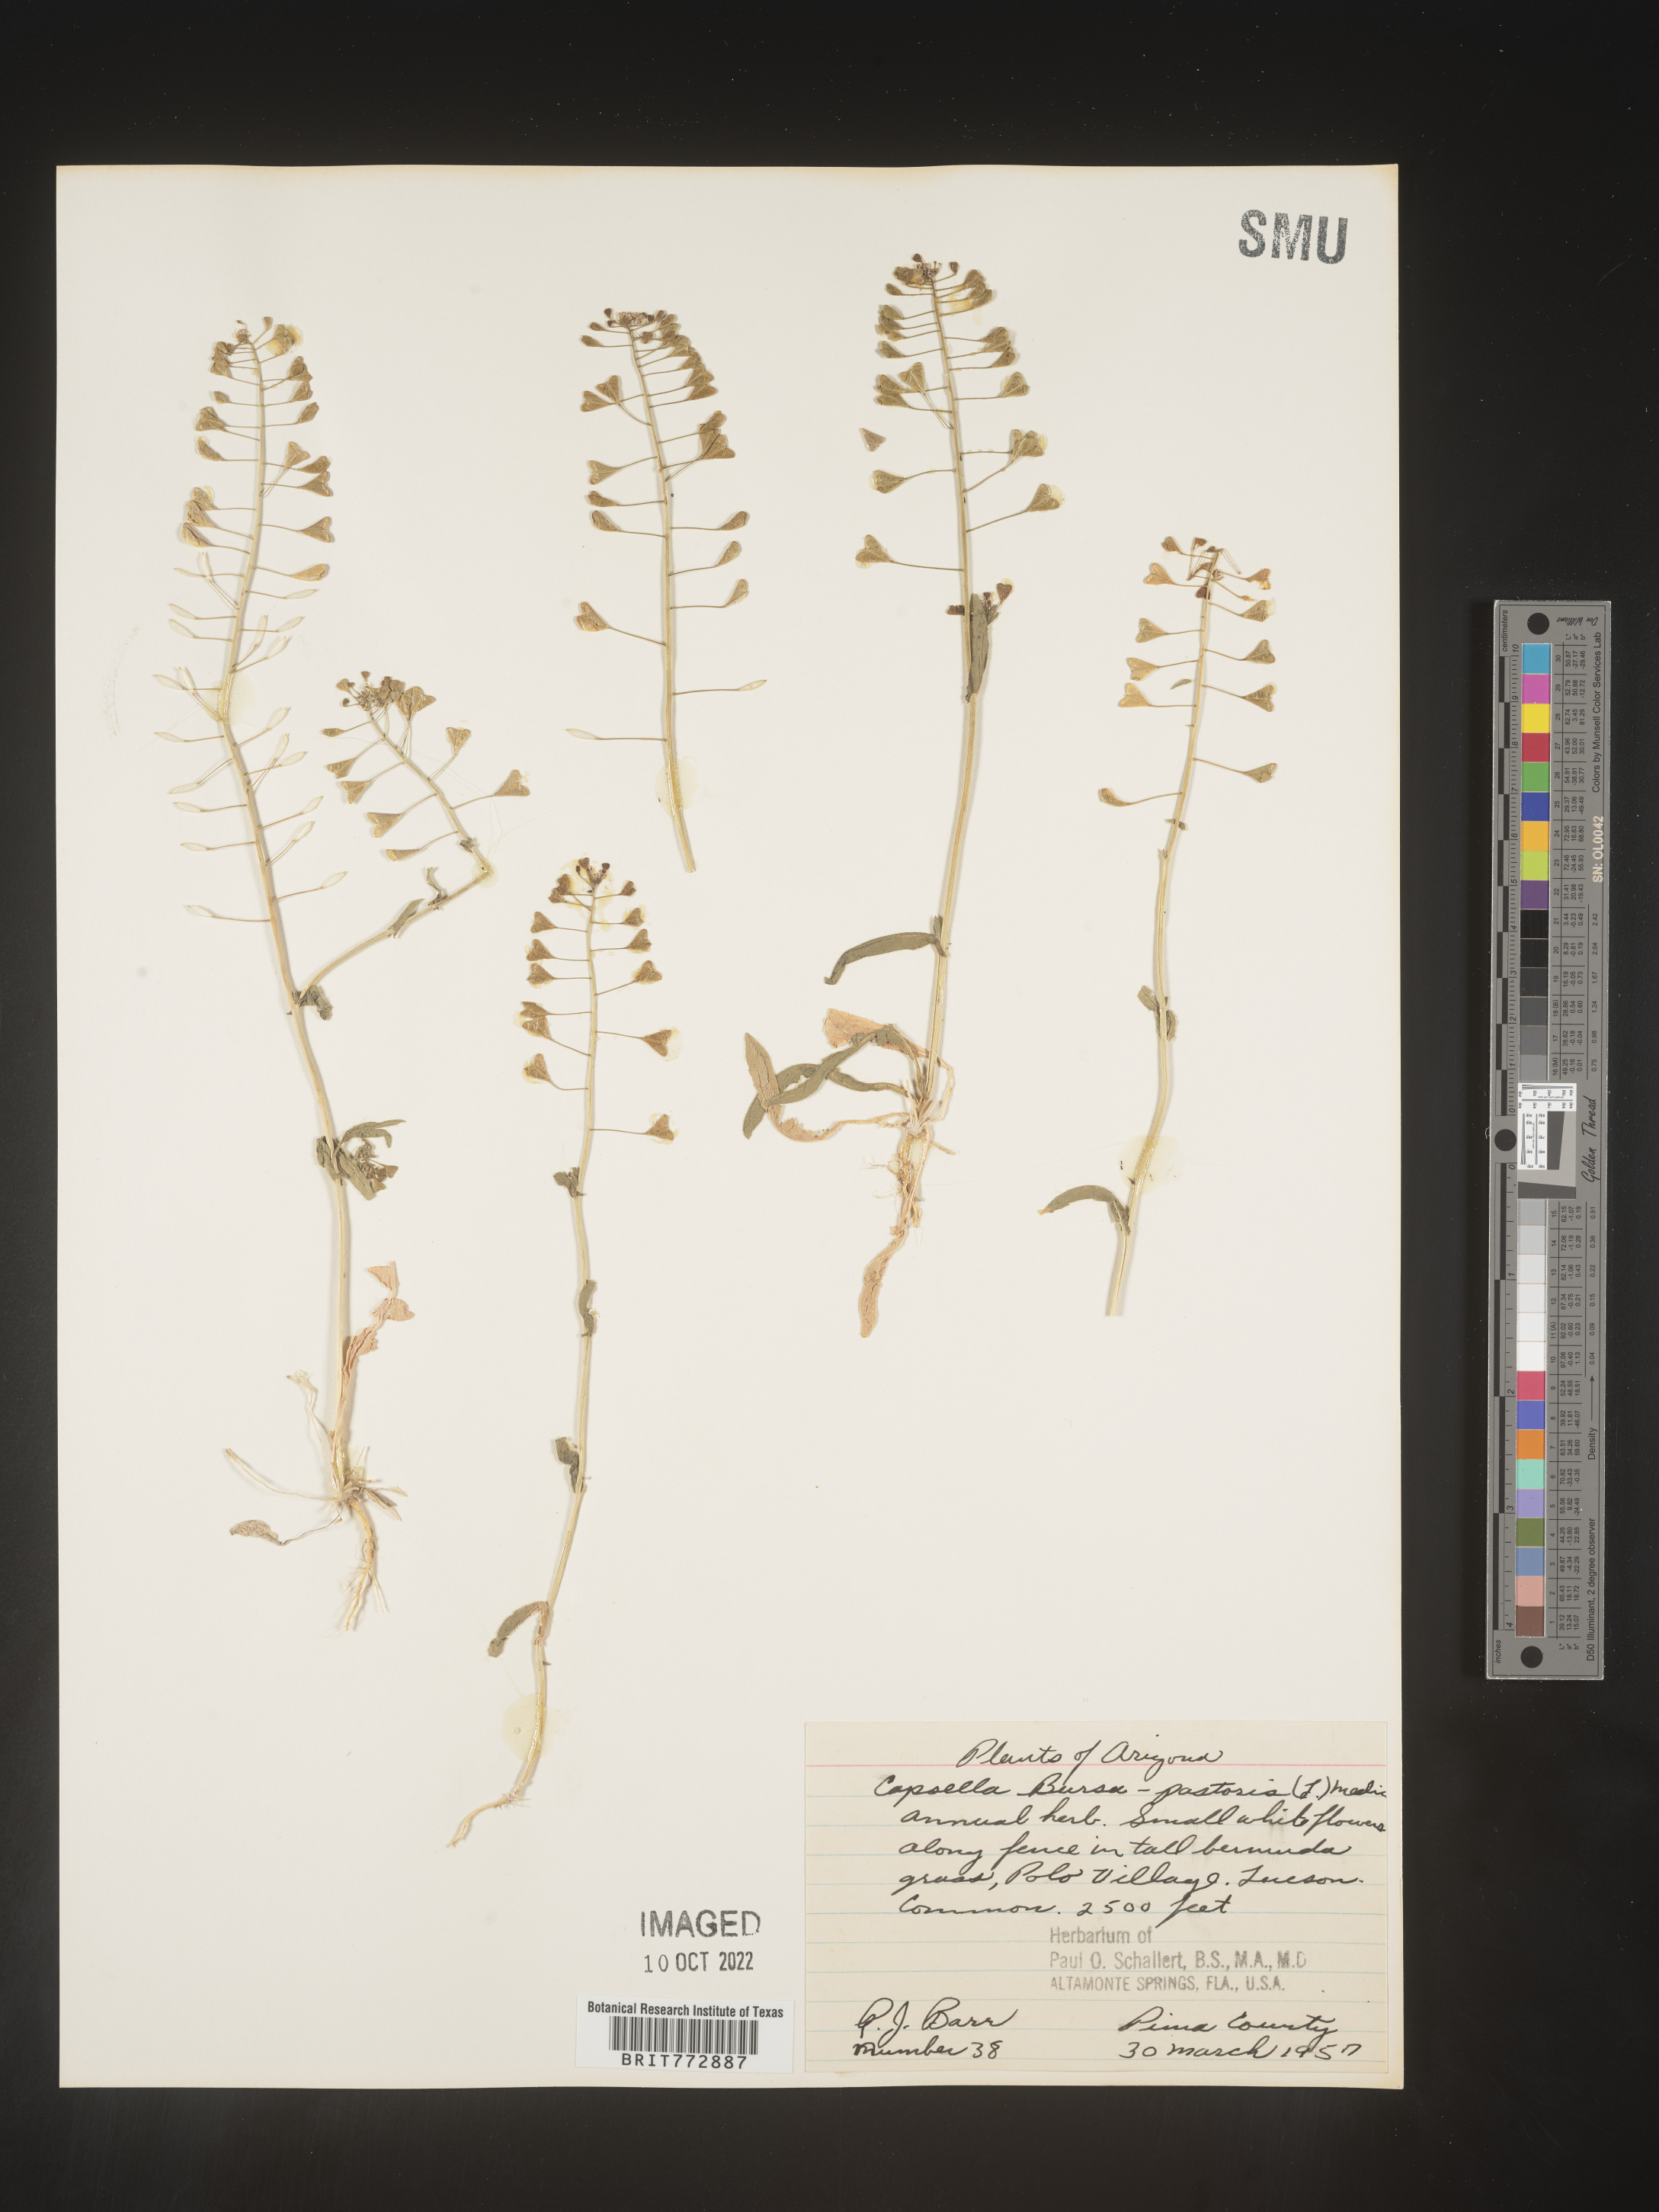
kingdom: Plantae
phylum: Tracheophyta
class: Magnoliopsida
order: Brassicales
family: Brassicaceae
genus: Capsella
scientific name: Capsella bursa-pastoris
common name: Shepherd's purse
